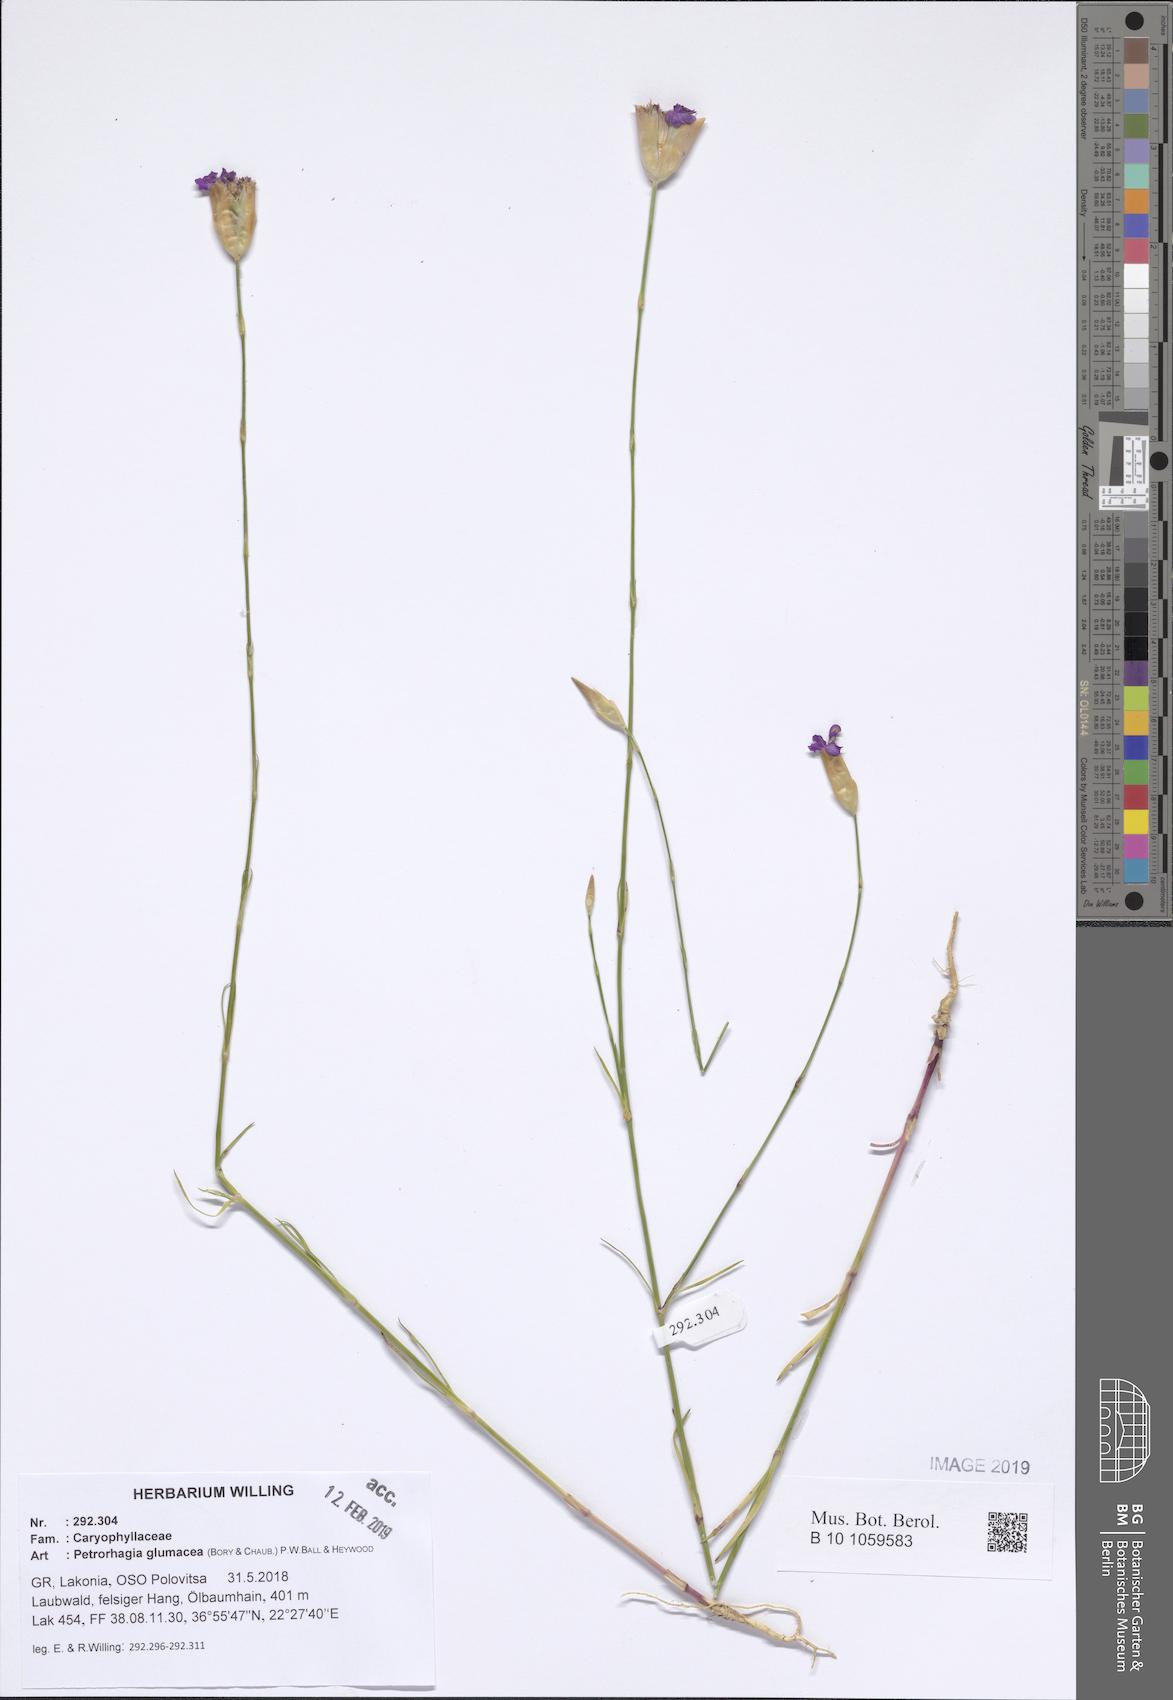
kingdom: Plantae
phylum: Tracheophyta
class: Magnoliopsida
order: Caryophyllales
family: Caryophyllaceae
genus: Petrorhagia
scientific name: Petrorhagia glumacea
